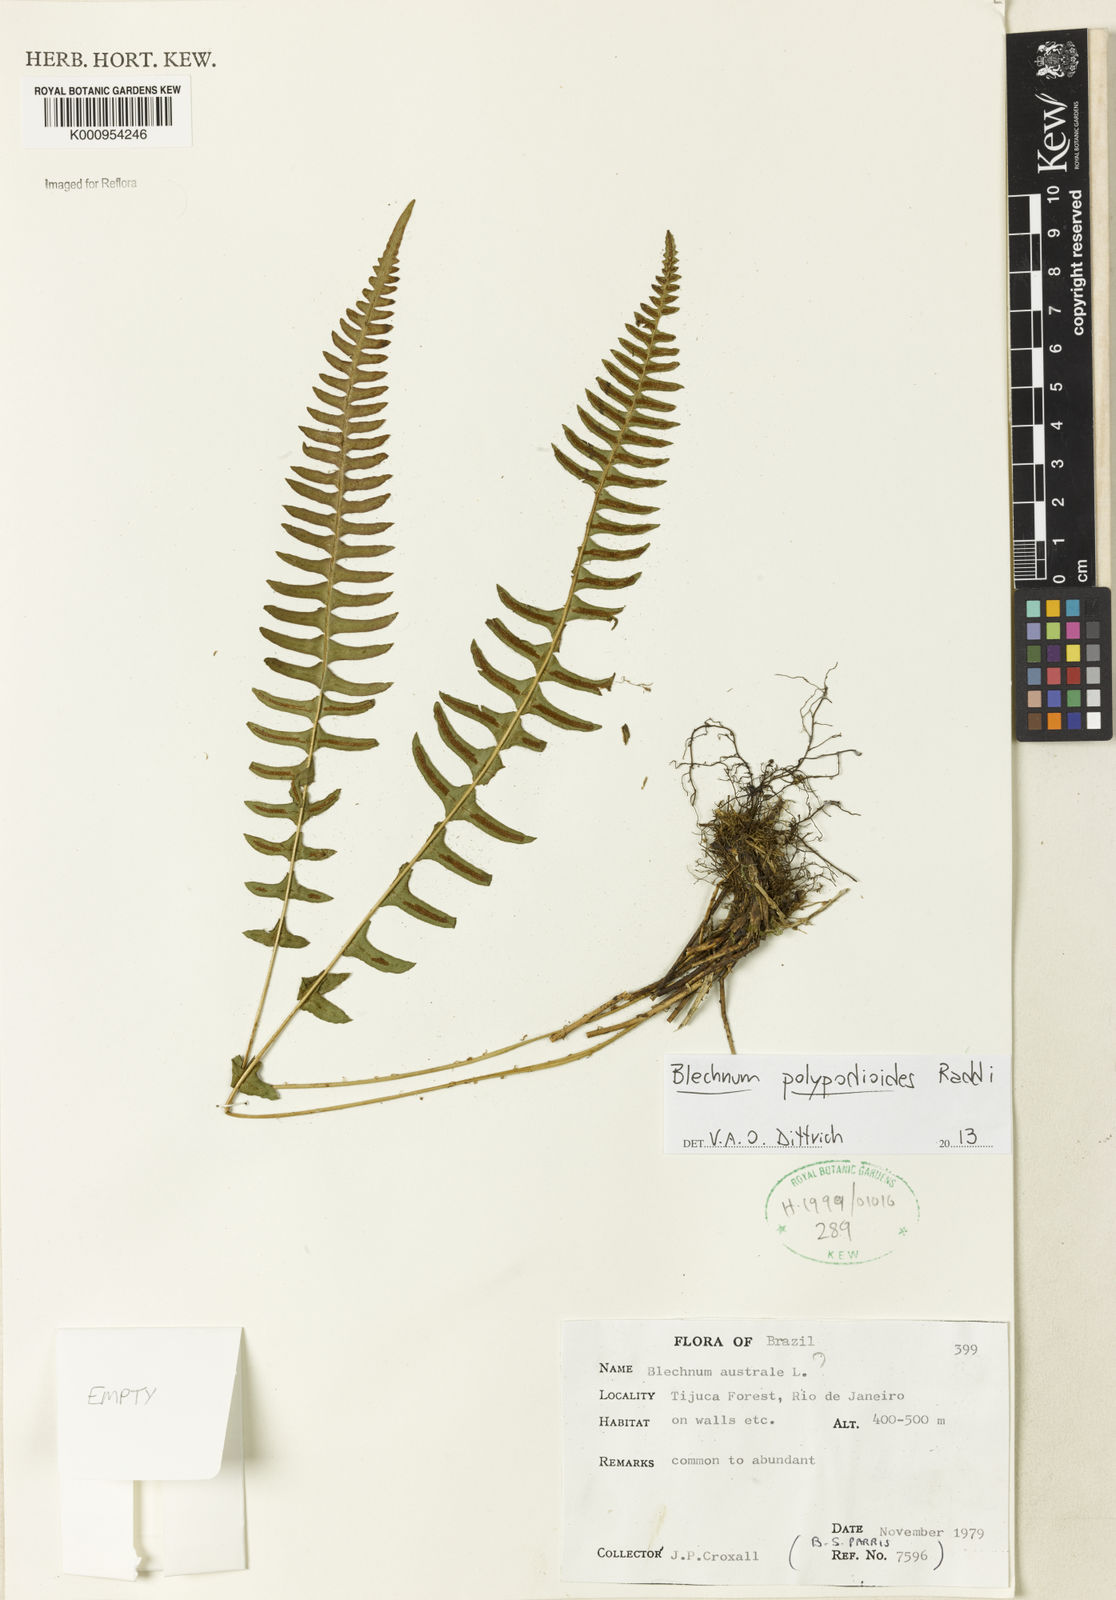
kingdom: Plantae
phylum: Tracheophyta
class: Polypodiopsida
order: Polypodiales
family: Blechnaceae
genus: Blechnum
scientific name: Blechnum australe
